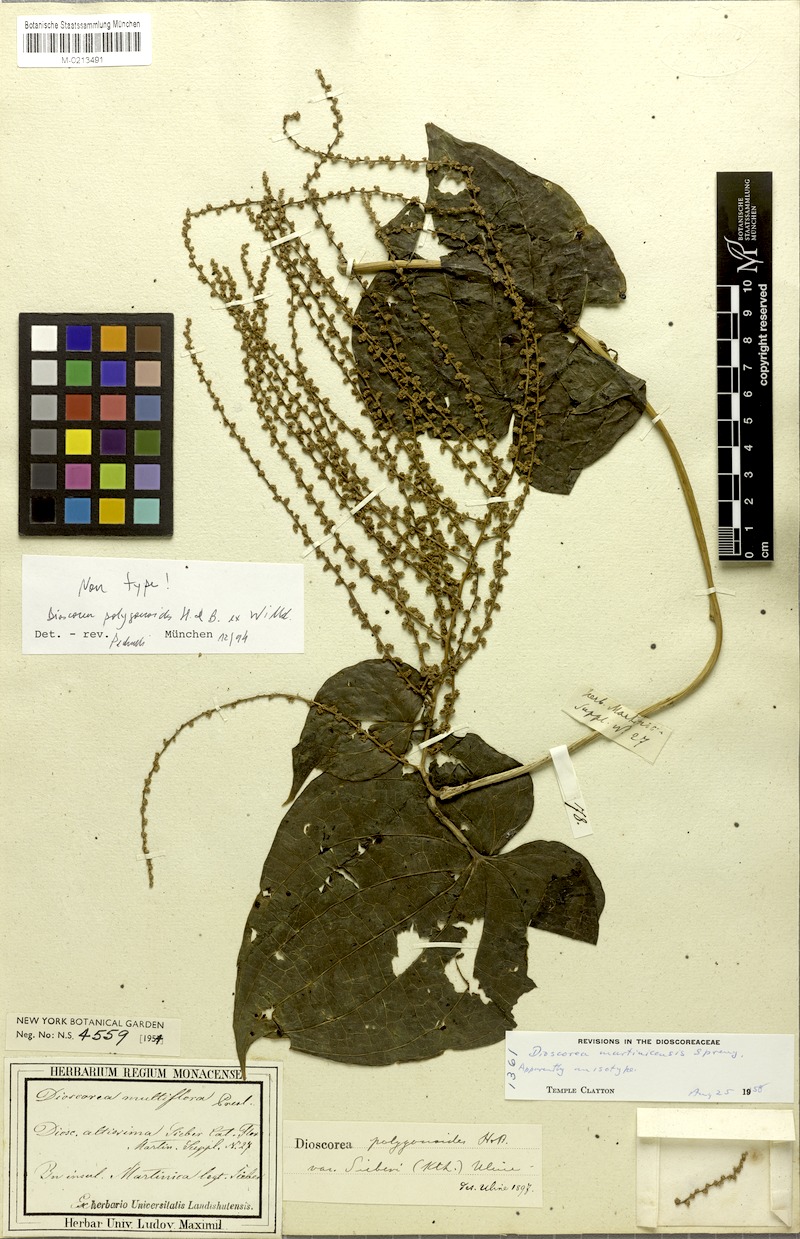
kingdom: Plantae
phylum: Tracheophyta
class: Liliopsida
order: Dioscoreales
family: Dioscoreaceae
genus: Dioscorea
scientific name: Dioscorea polygonoides
